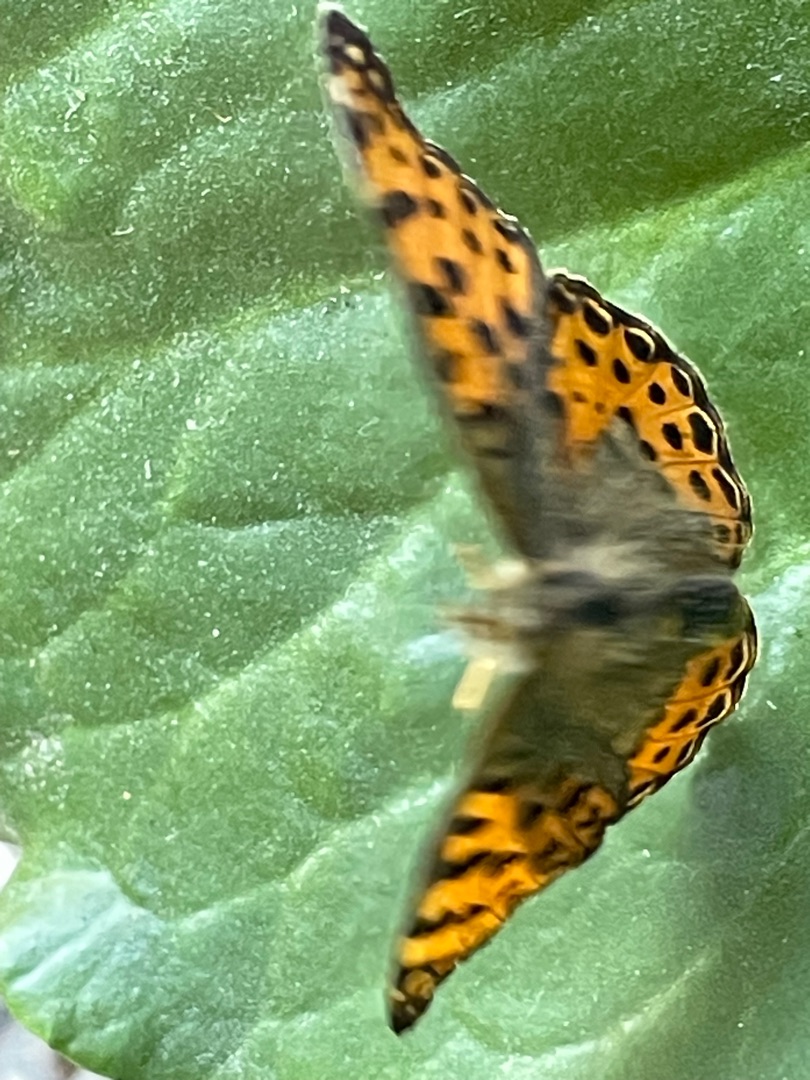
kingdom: Animalia
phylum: Arthropoda
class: Insecta
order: Lepidoptera
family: Nymphalidae
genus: Issoria
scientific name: Issoria lathonia
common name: Storplettet perlemorsommerfugl
